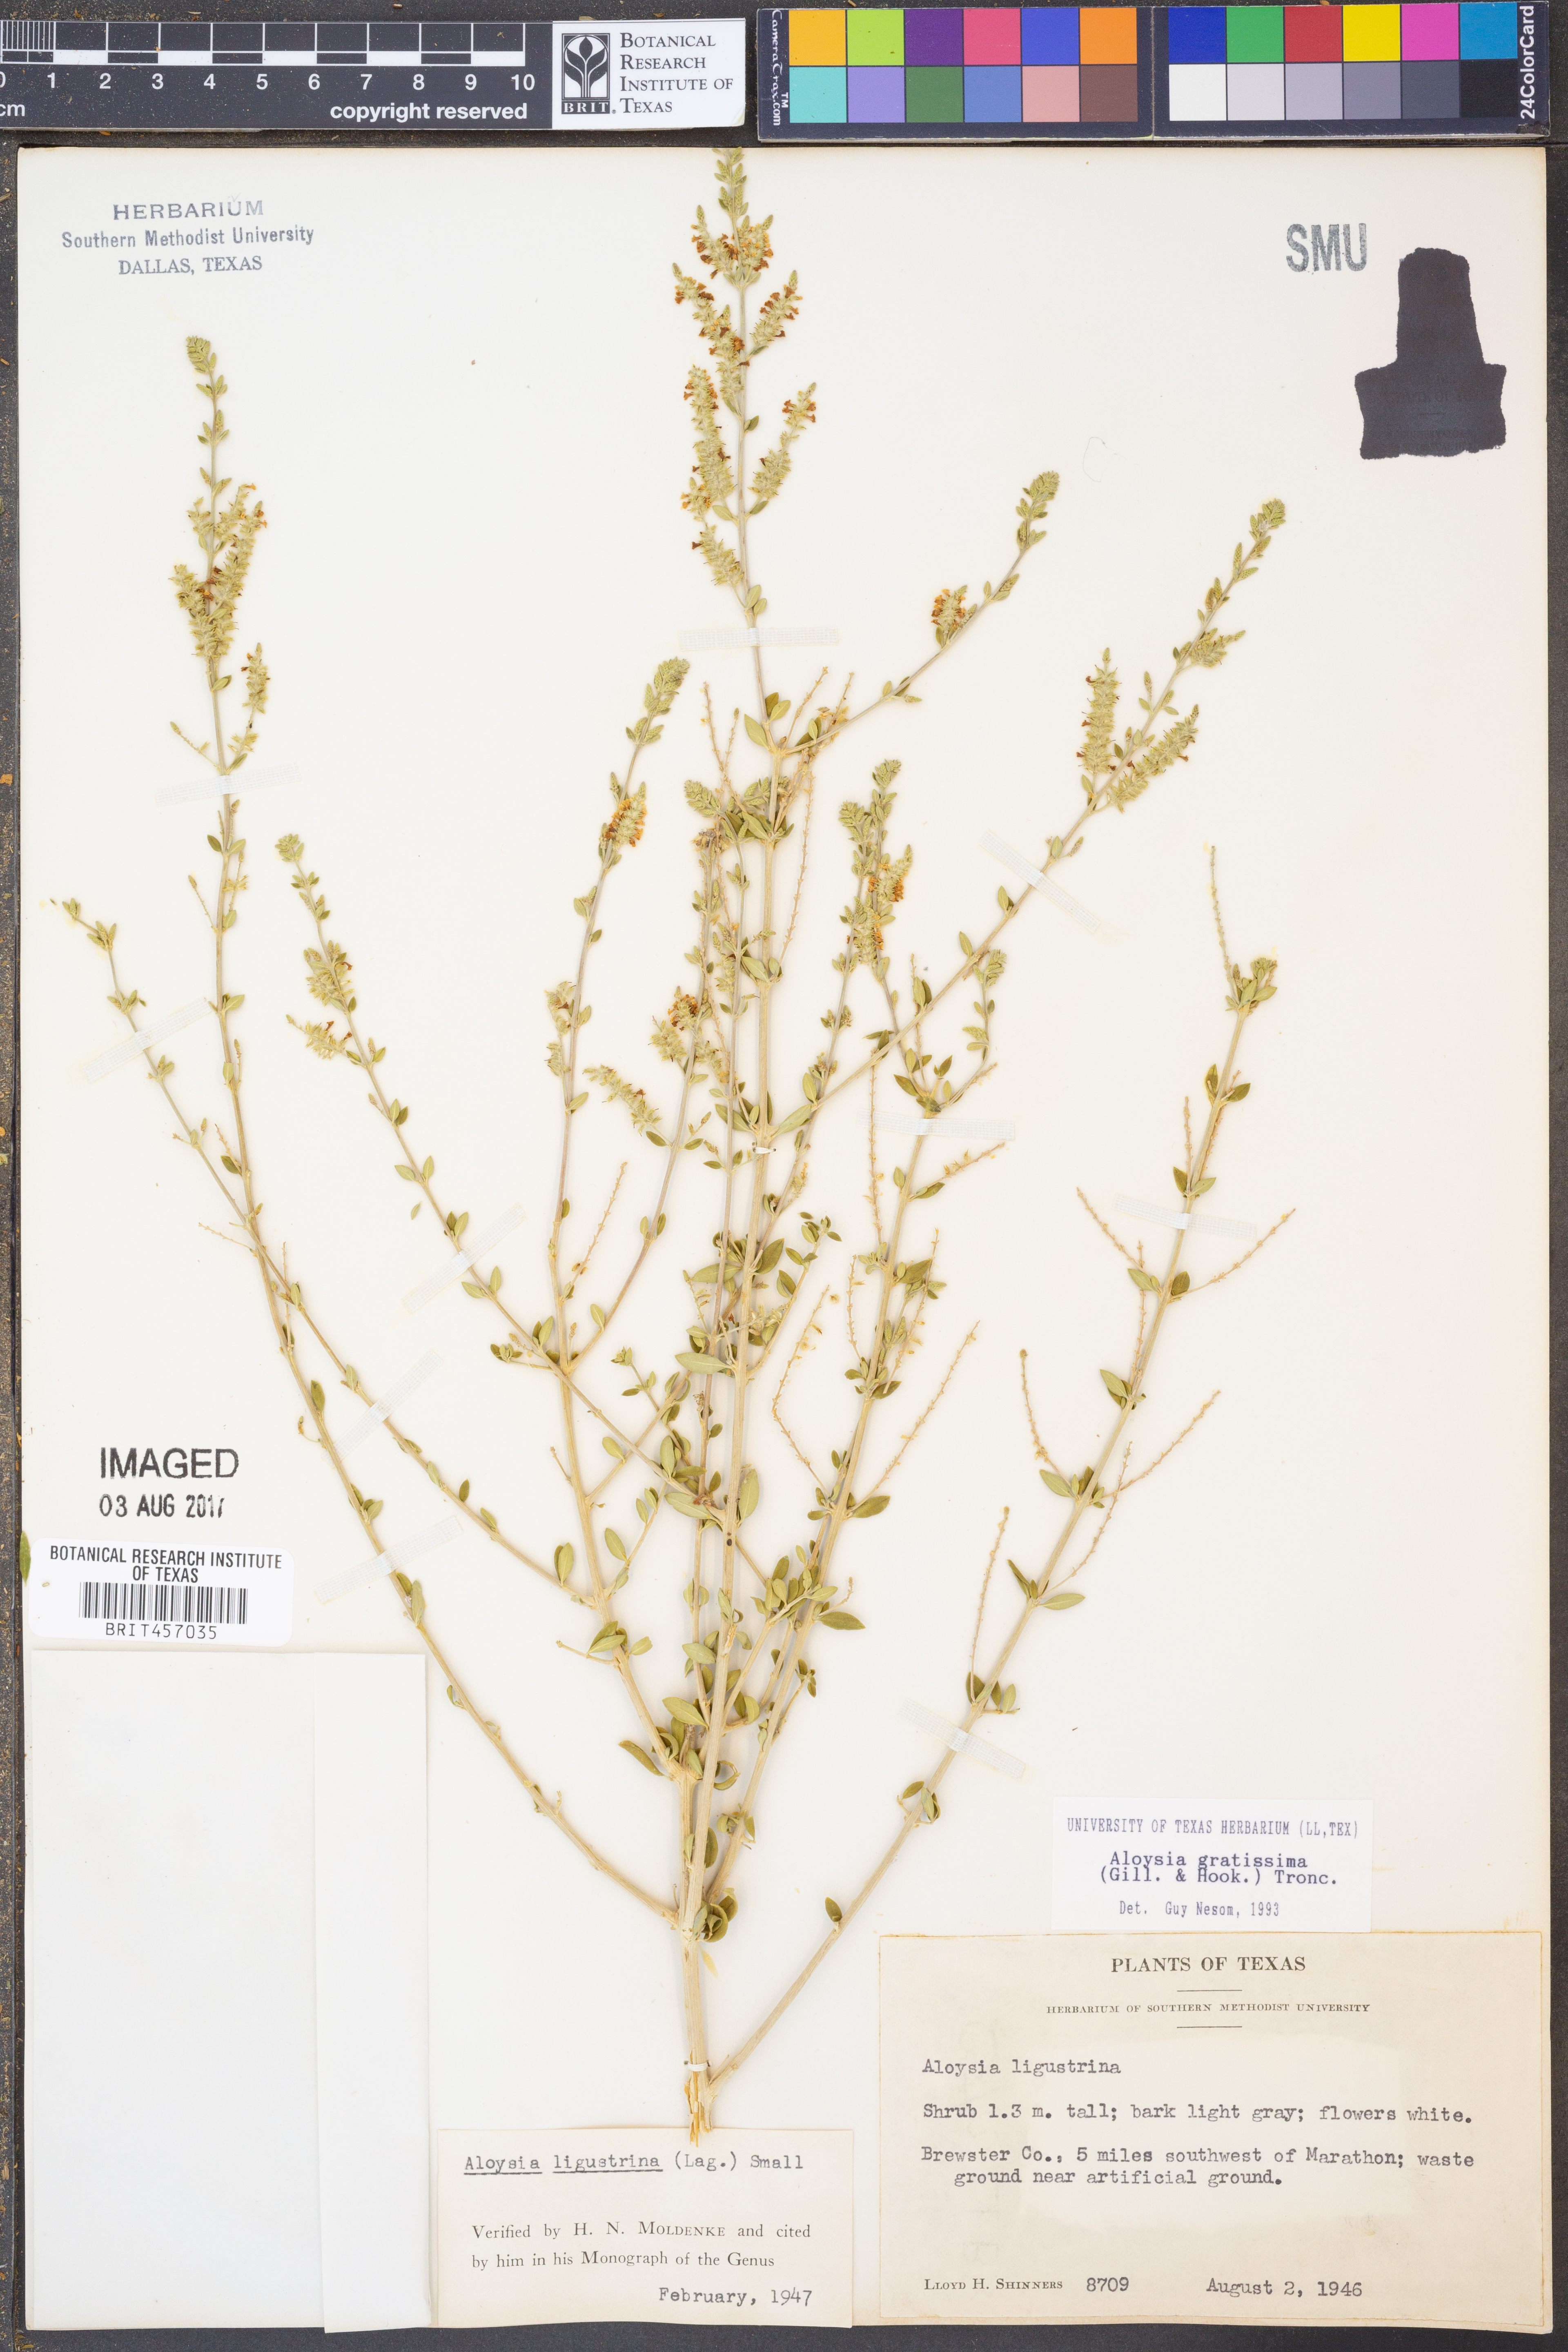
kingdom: Plantae
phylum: Tracheophyta
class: Magnoliopsida
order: Lamiales
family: Verbenaceae
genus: Aloysia
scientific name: Aloysia gratissima
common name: Common bee-brush
